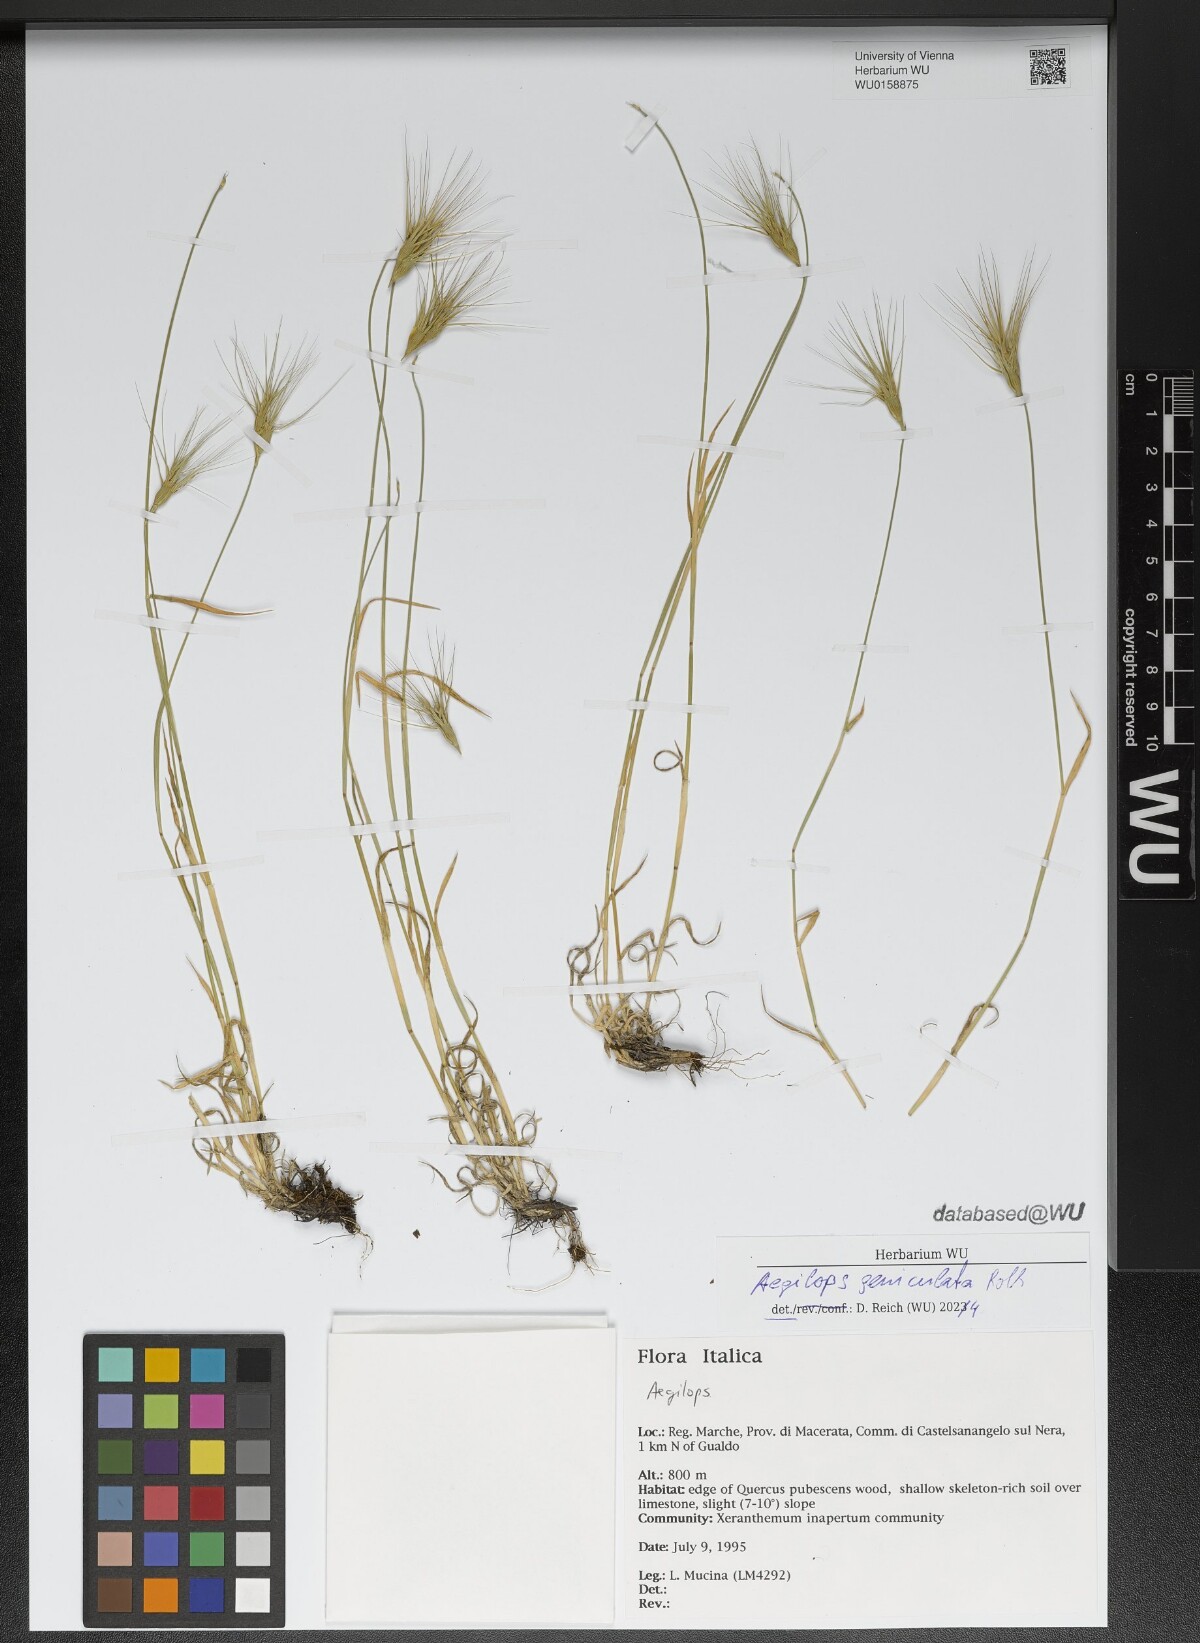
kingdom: Plantae
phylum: Tracheophyta
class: Liliopsida
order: Poales
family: Poaceae
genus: Aegilops
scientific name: Aegilops geniculata
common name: Ovate goat grass
